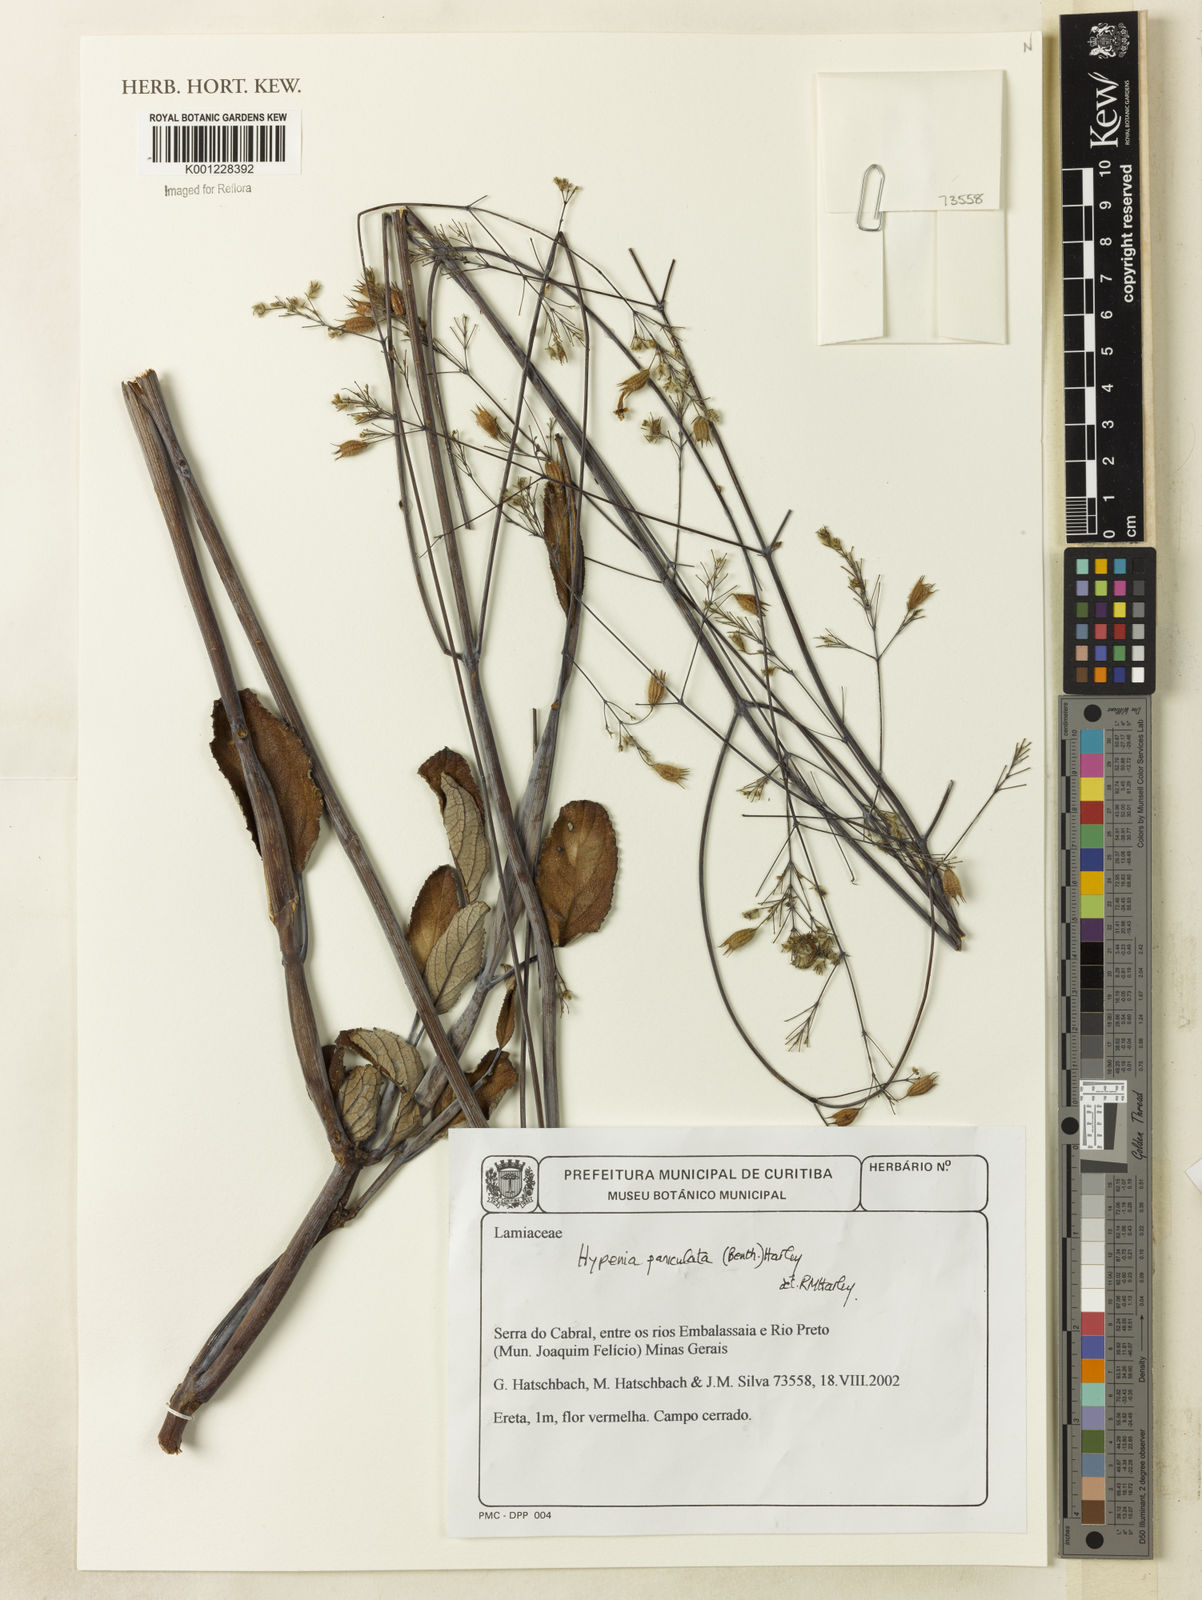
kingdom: Plantae
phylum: Tracheophyta
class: Magnoliopsida
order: Lamiales
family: Lamiaceae
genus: Hypenia
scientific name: Hypenia paniculata
